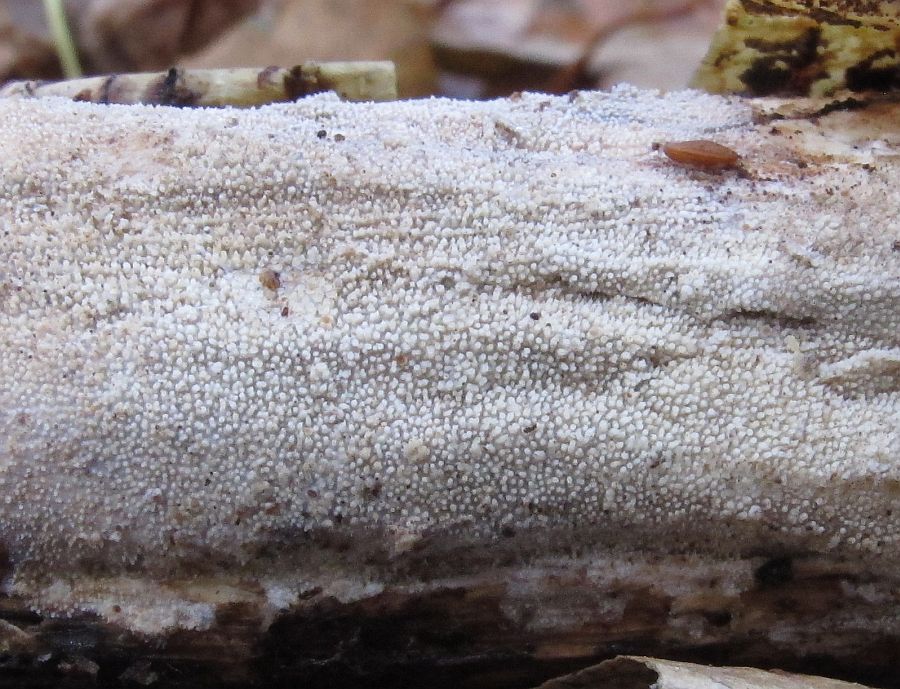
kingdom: Fungi
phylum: Basidiomycota
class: Agaricomycetes
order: Hymenochaetales
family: Rickenellaceae
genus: Resinicium
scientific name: Resinicium bicolor
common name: almindelig vokstand
